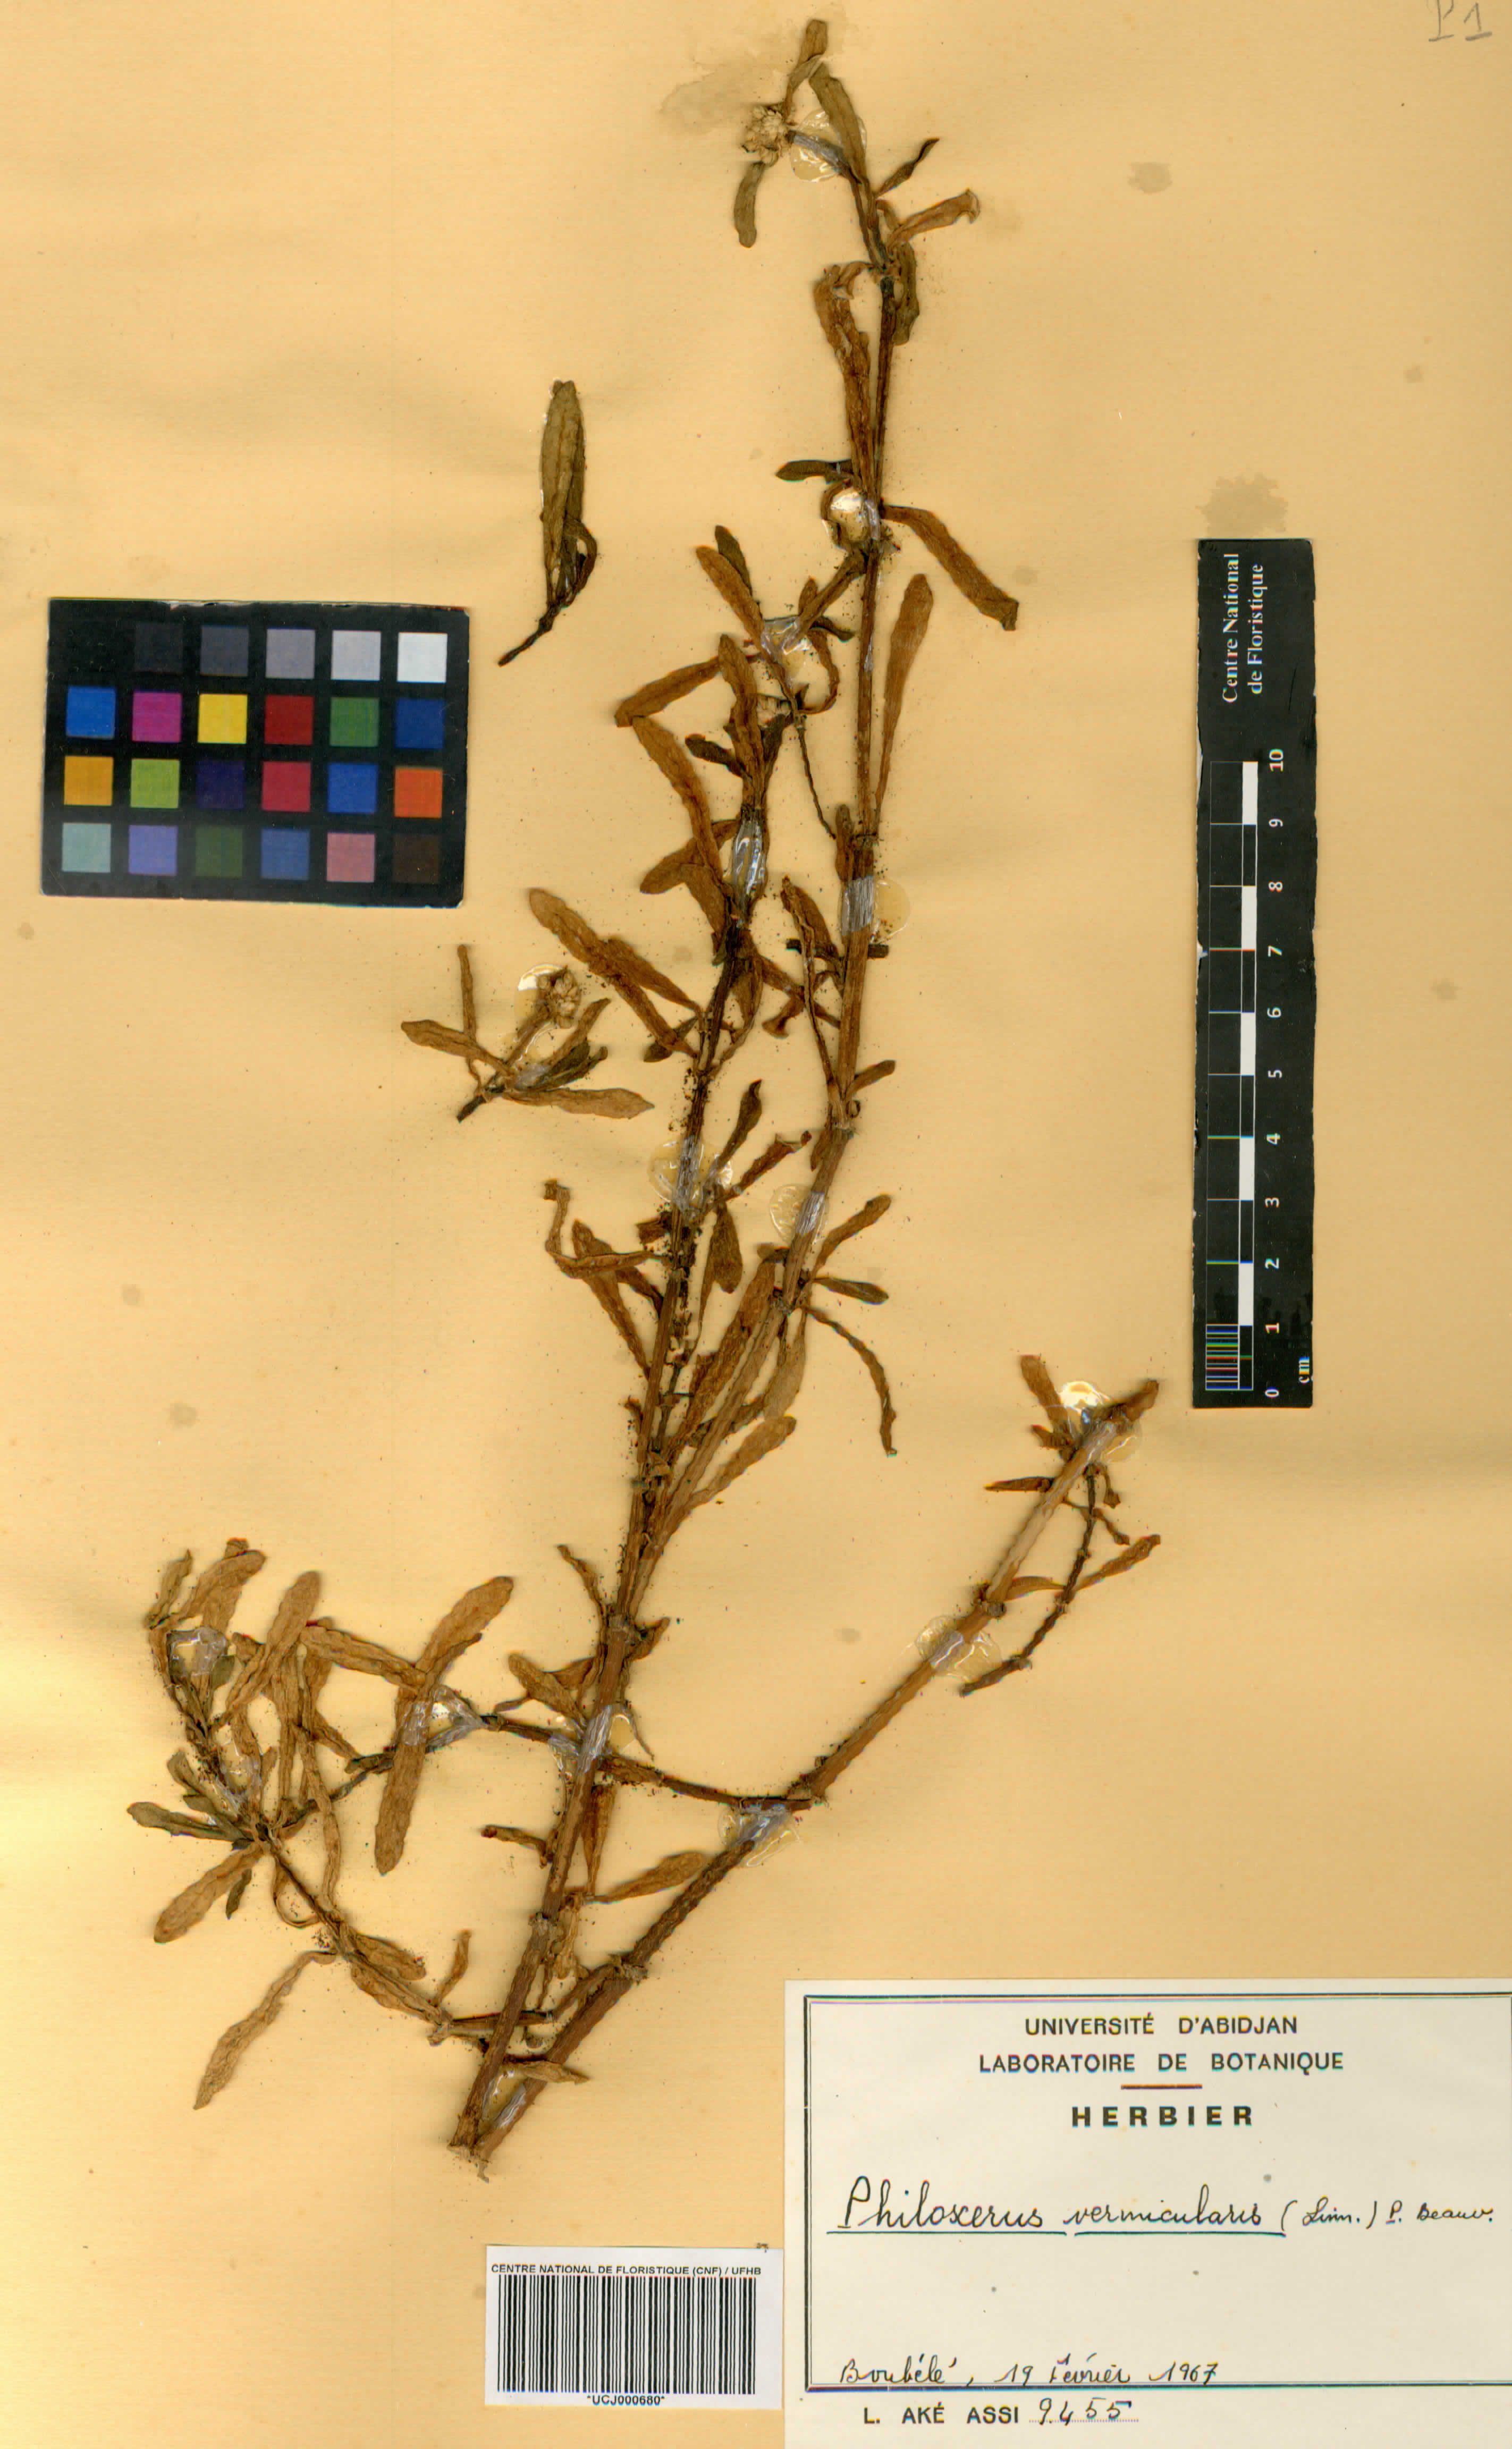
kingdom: Plantae
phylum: Tracheophyta
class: Magnoliopsida
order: Caryophyllales
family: Amaranthaceae
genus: Gomphrena
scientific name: Gomphrena vermicularis
